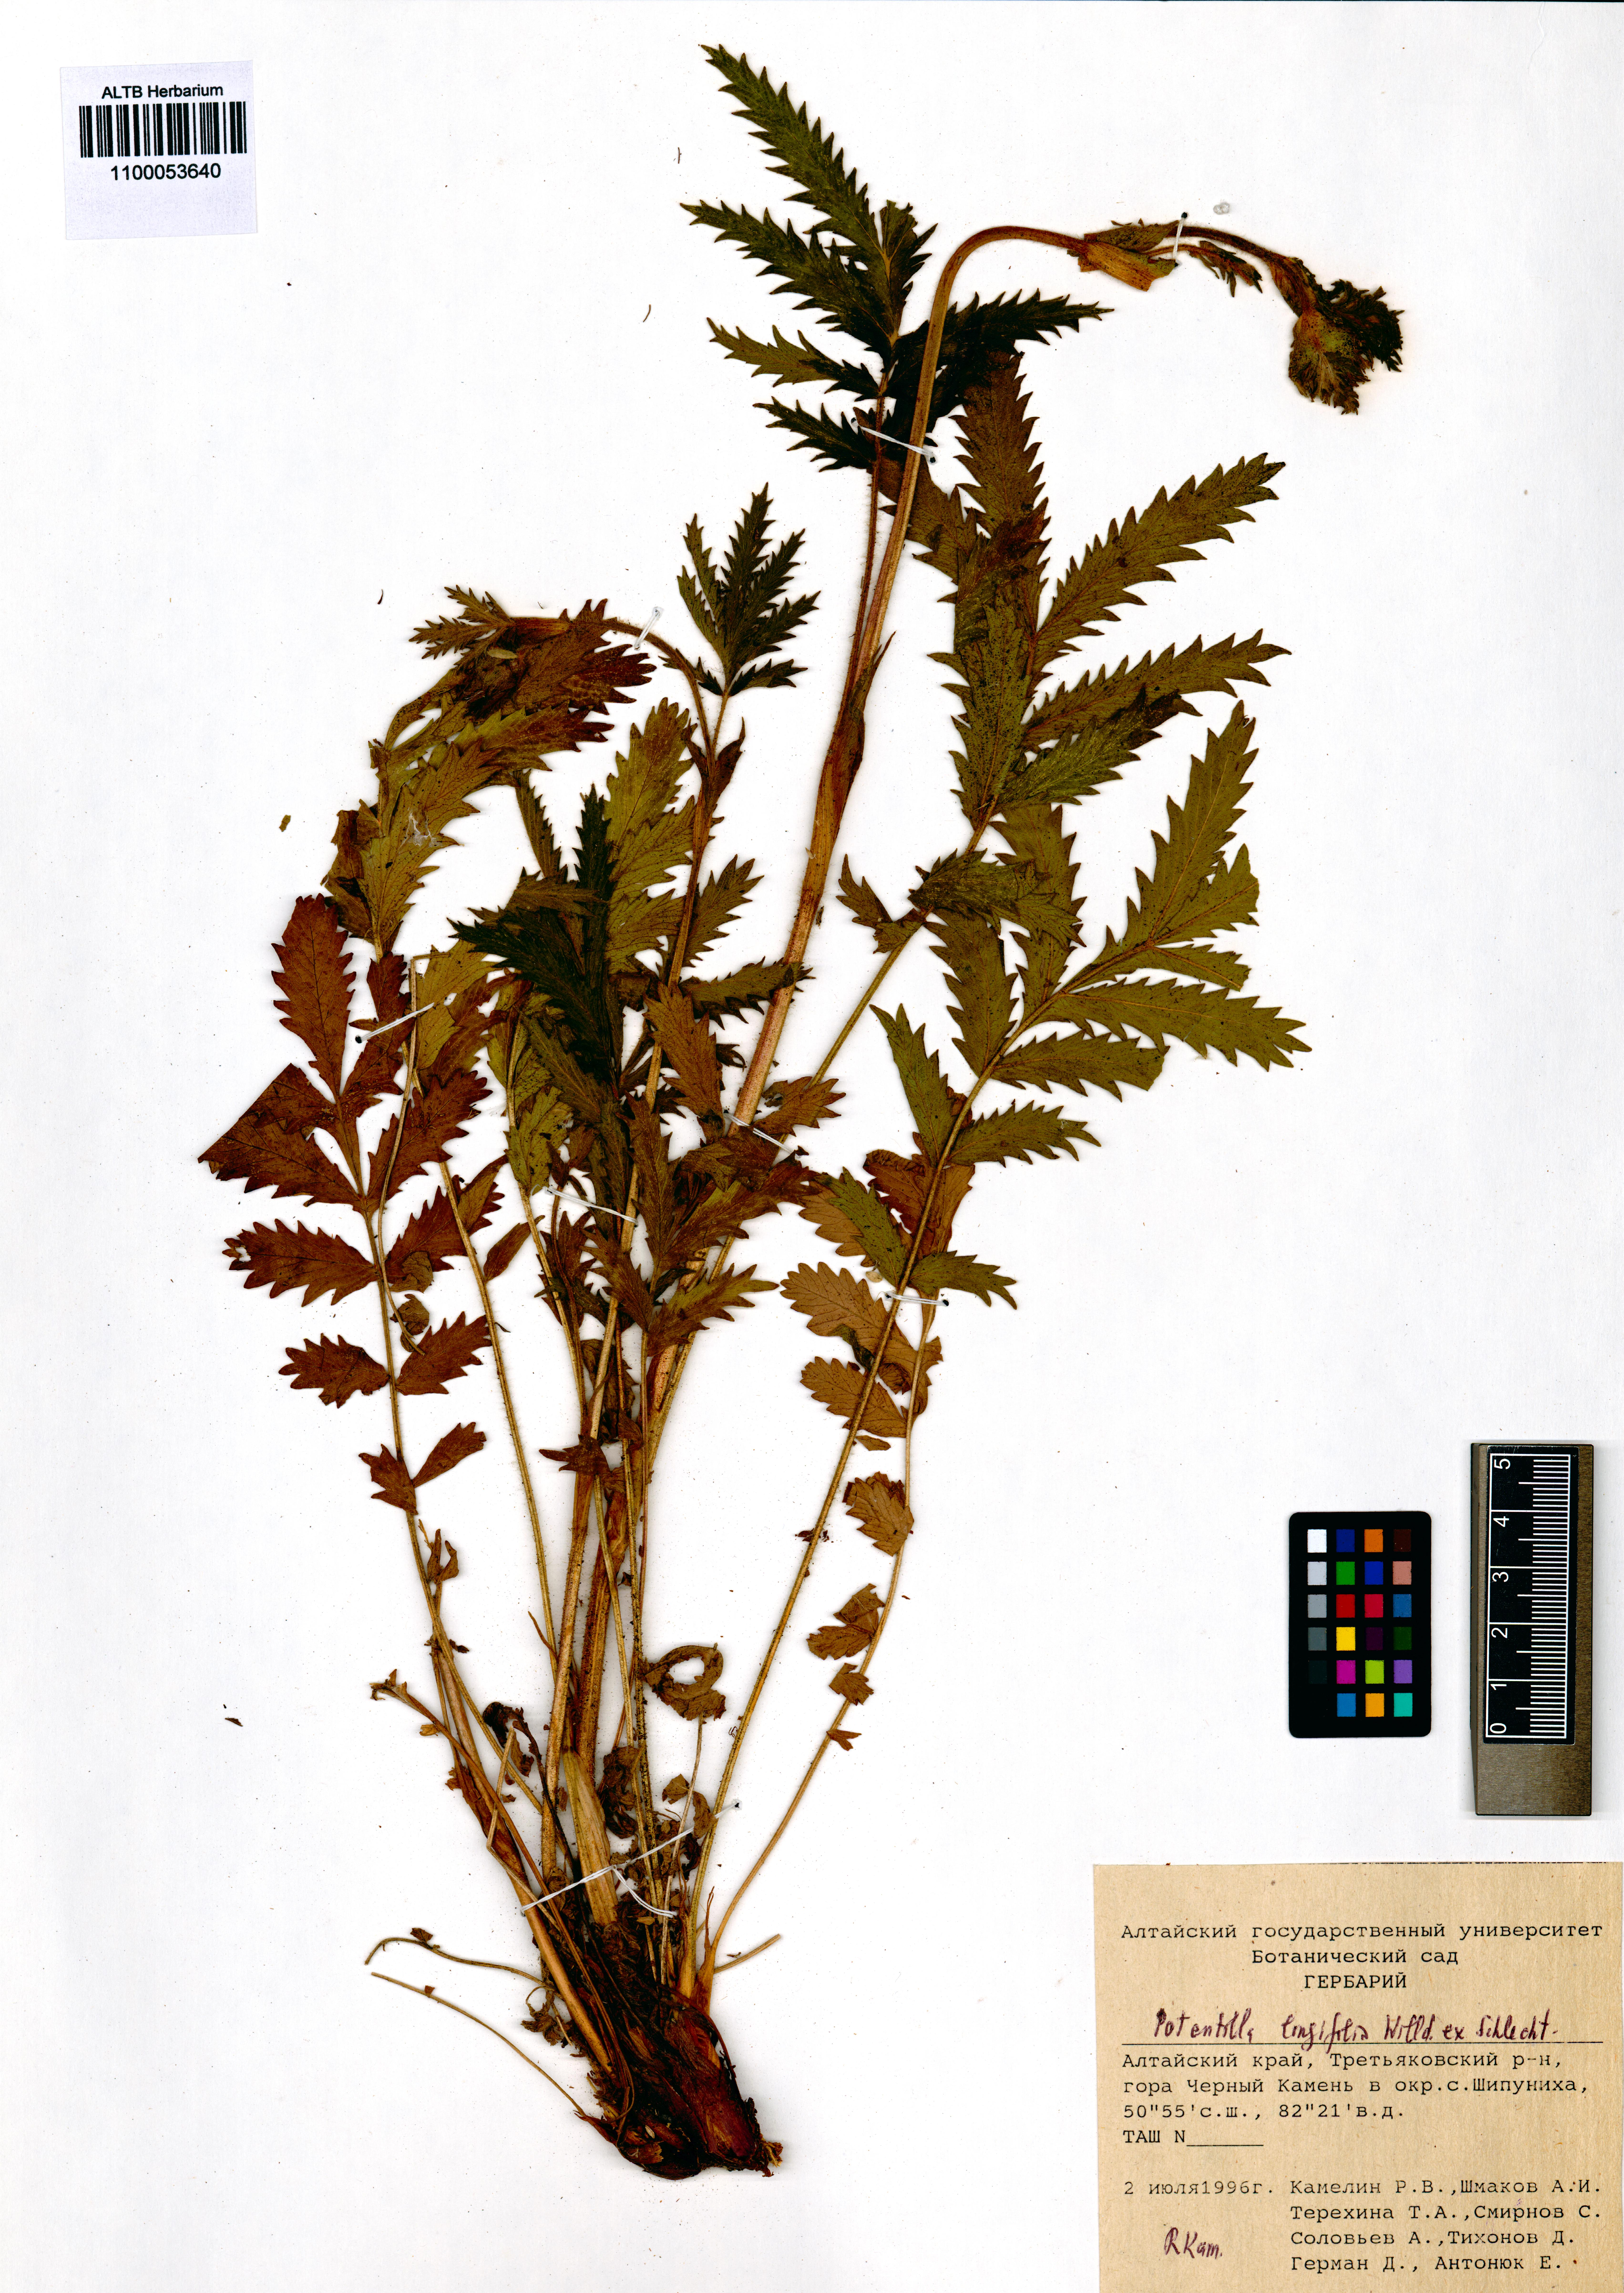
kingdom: Plantae
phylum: Tracheophyta
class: Magnoliopsida
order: Rosales
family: Rosaceae
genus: Potentilla
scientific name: Potentilla longifolia
